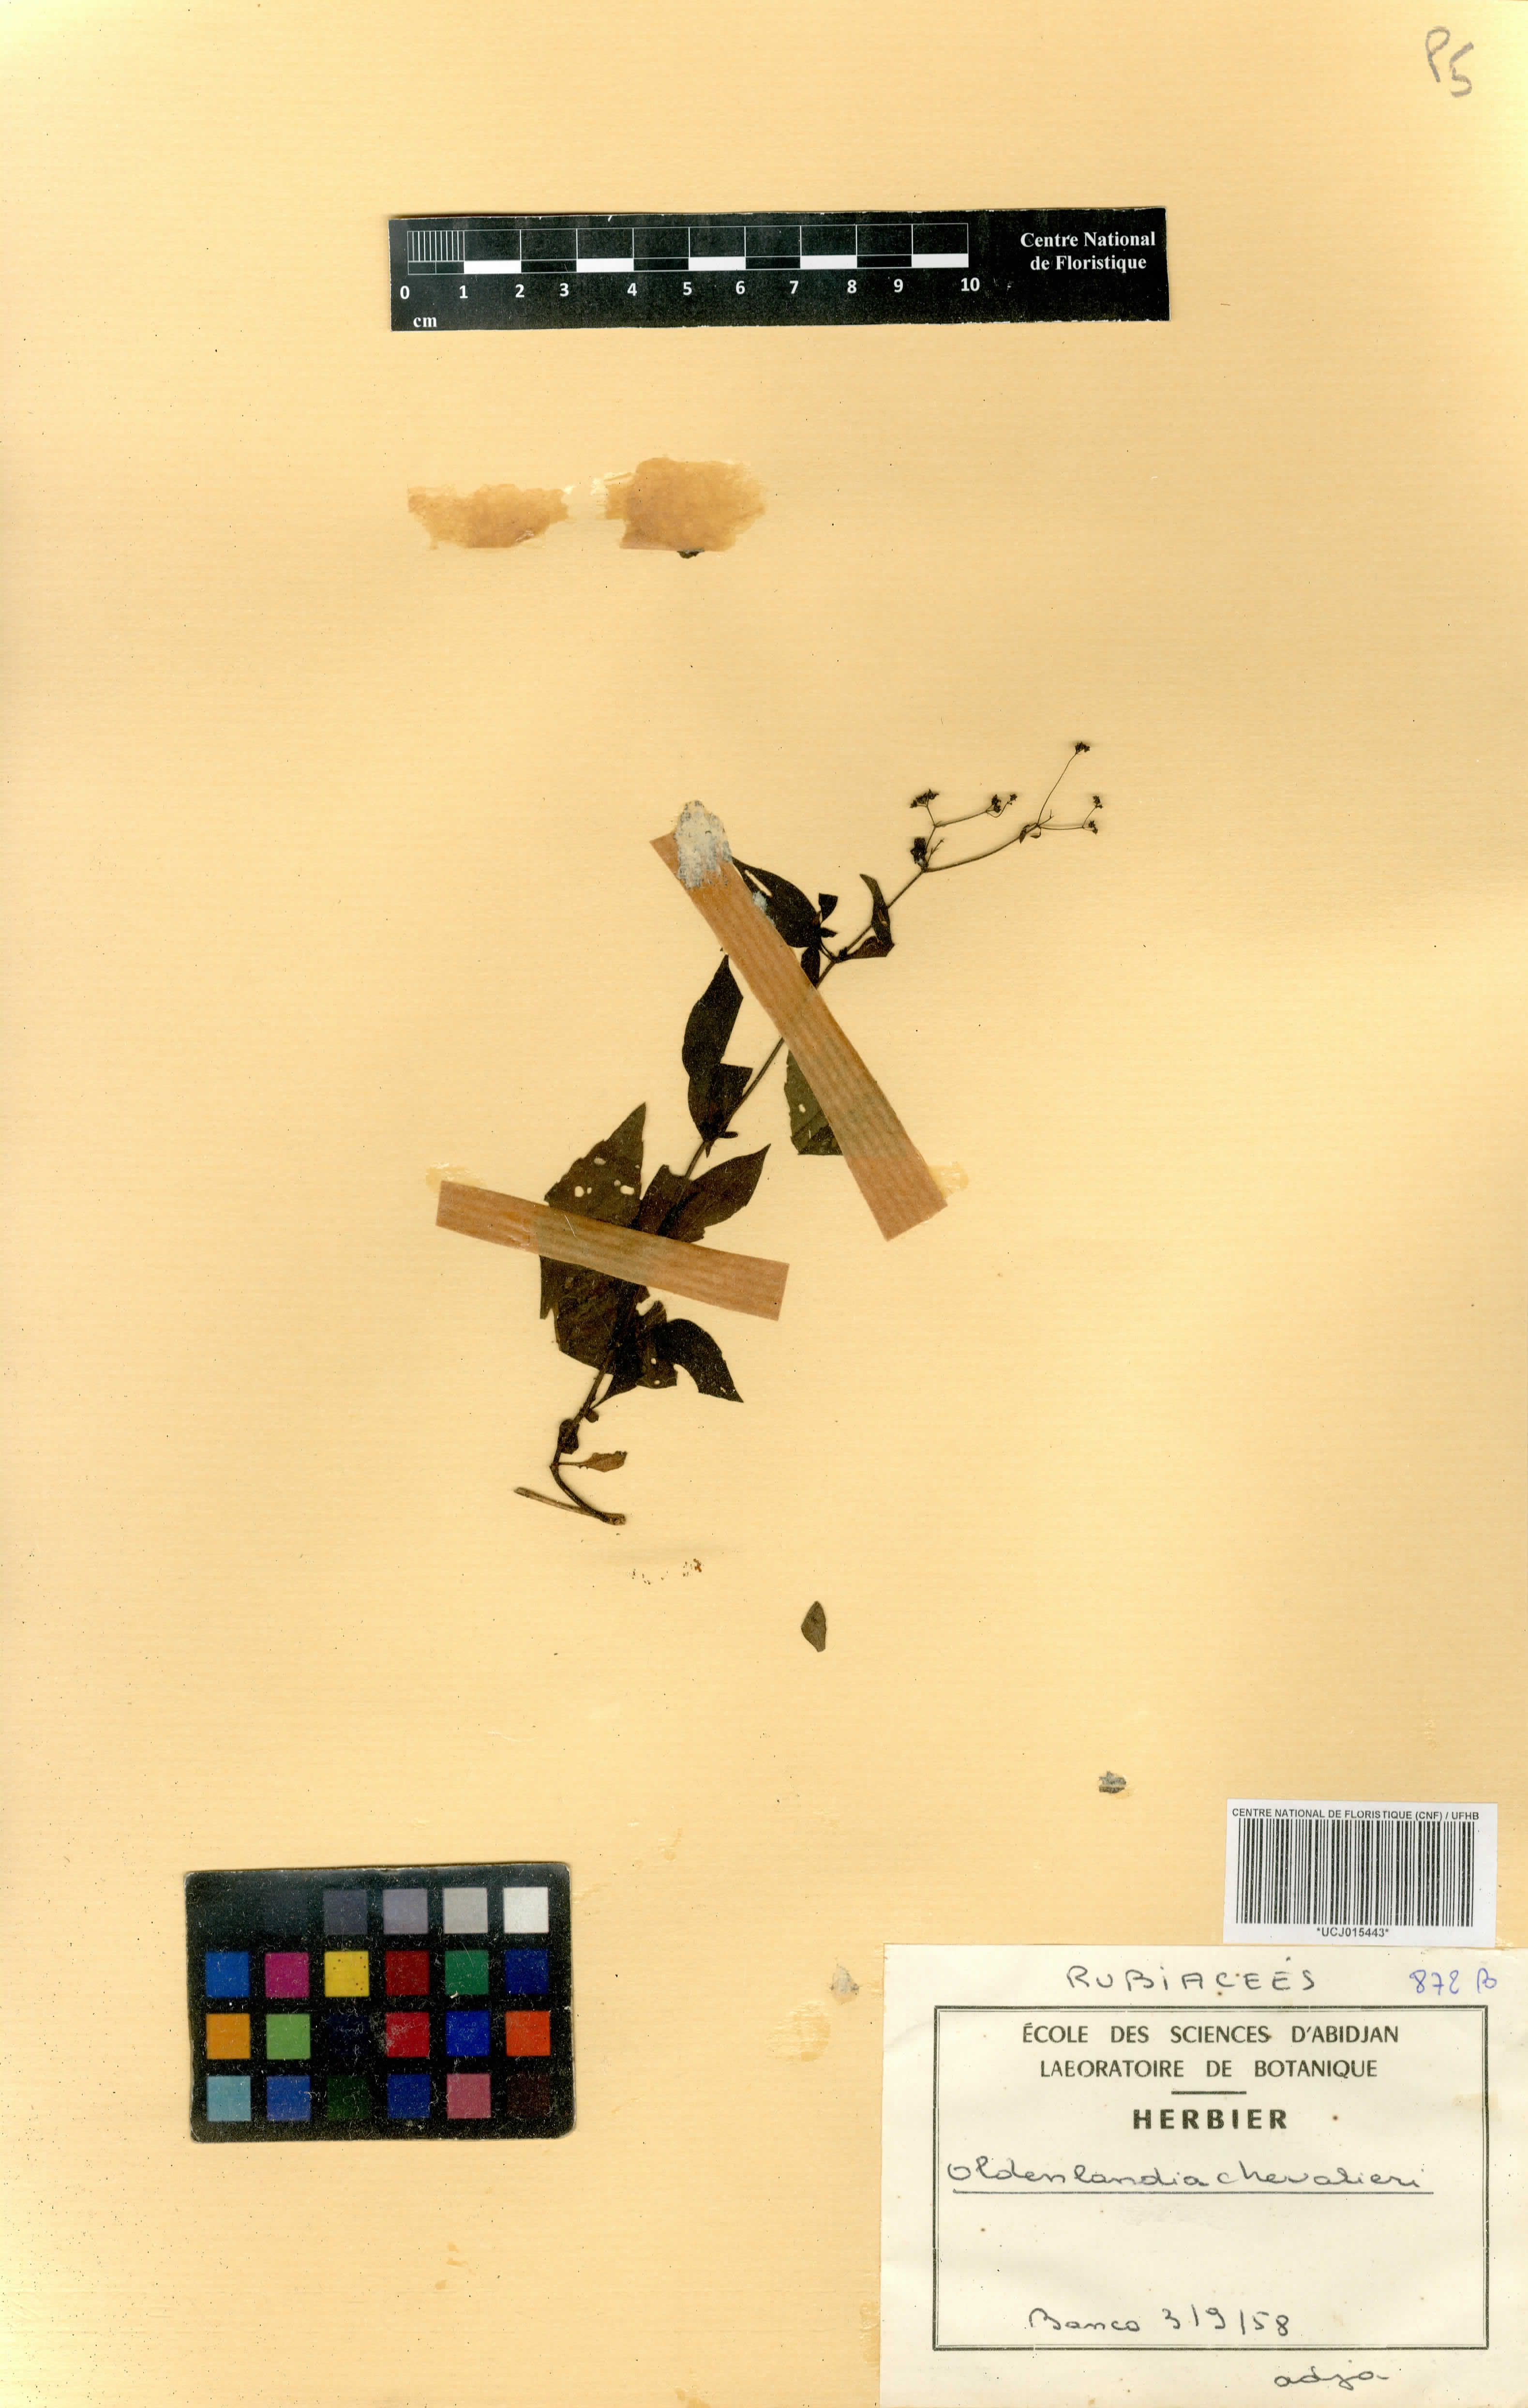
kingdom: Plantae
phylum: Tracheophyta
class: Magnoliopsida
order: Gentianales
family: Rubiaceae
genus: Oldenlandia
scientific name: Oldenlandia johnstonii
